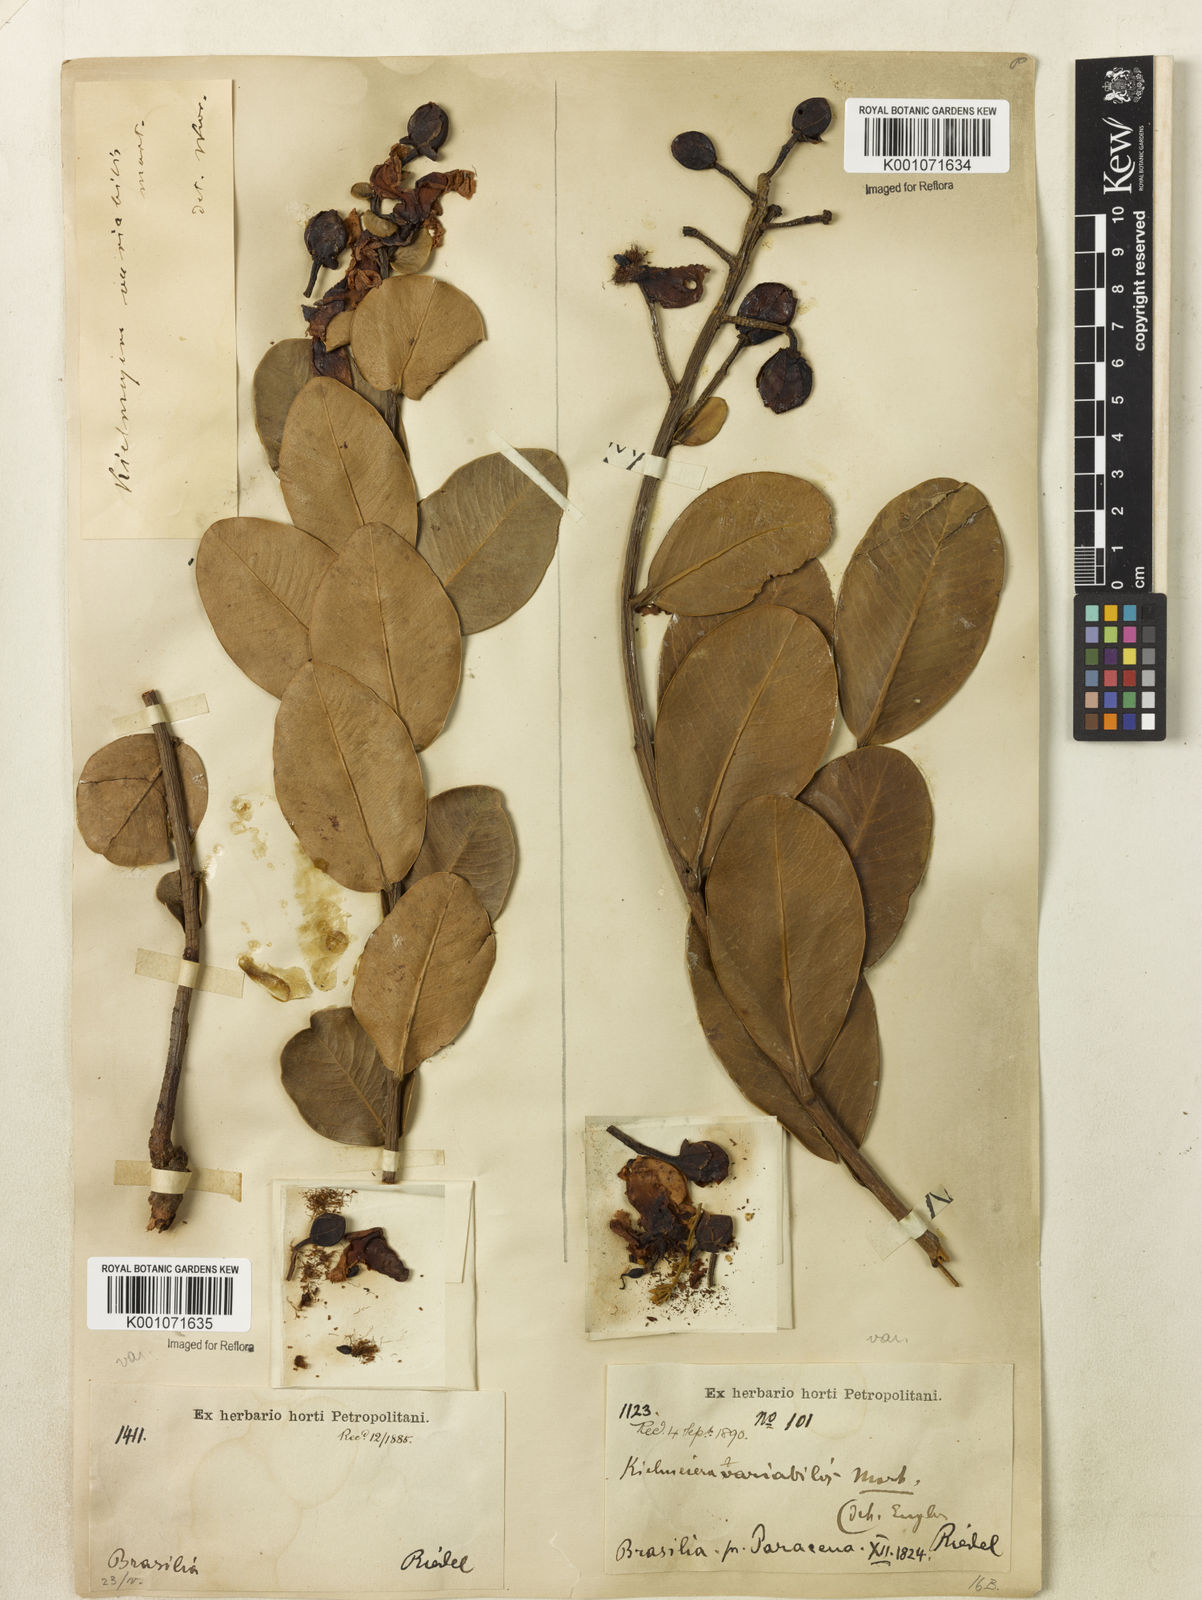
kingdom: Plantae
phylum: Tracheophyta
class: Magnoliopsida
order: Malpighiales
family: Calophyllaceae
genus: Kielmeyera
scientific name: Kielmeyera variabilis
